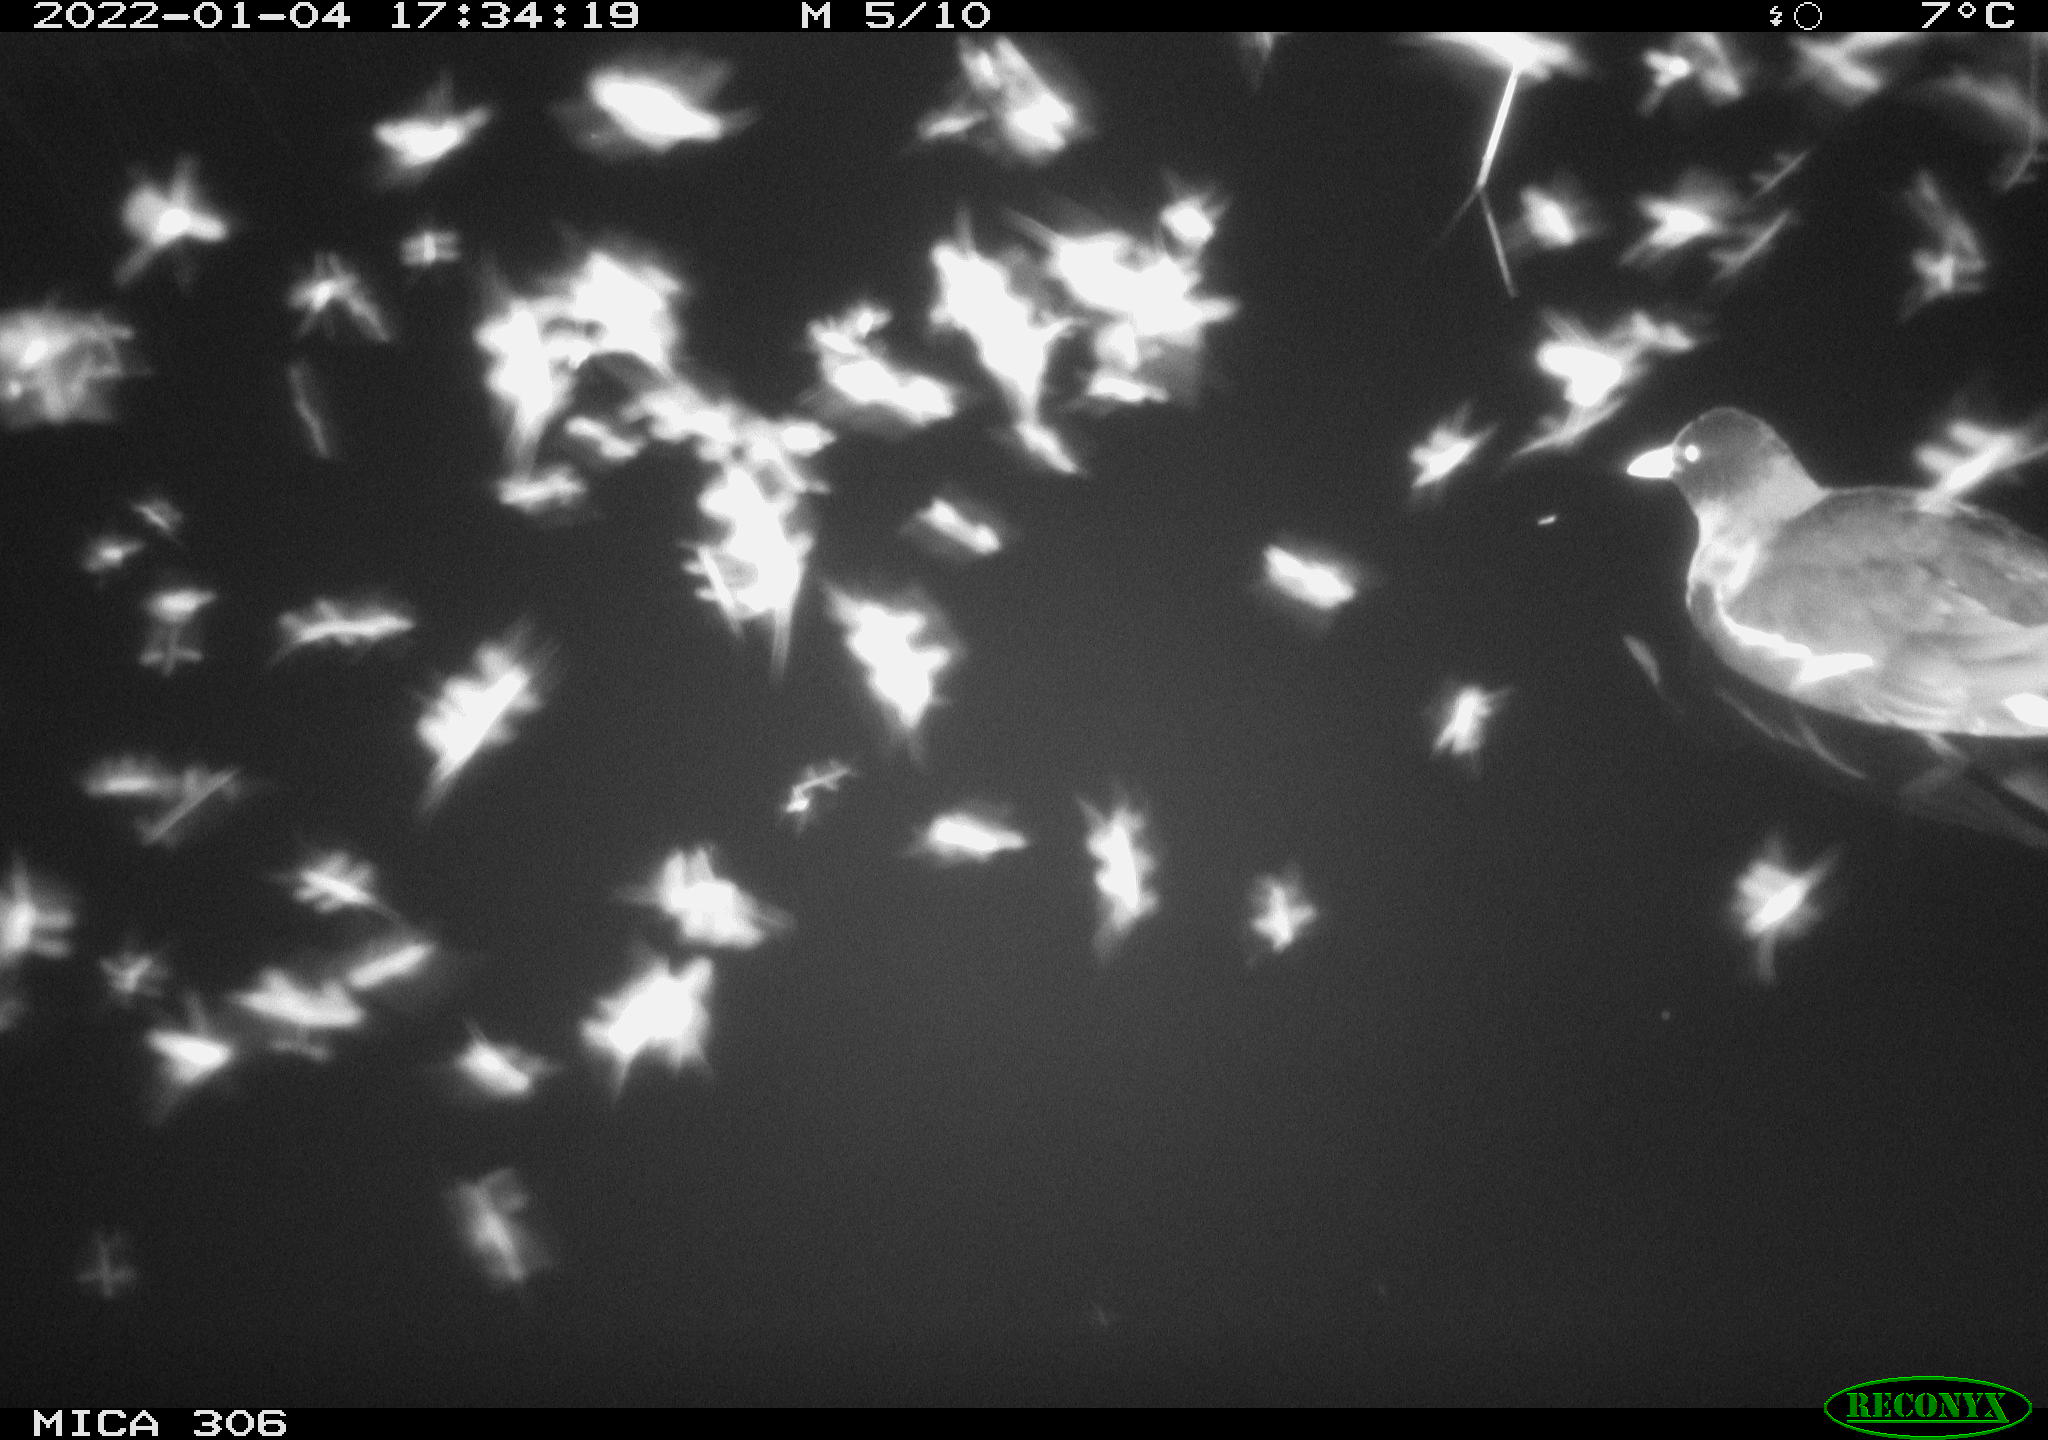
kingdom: Animalia
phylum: Chordata
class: Aves
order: Gruiformes
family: Rallidae
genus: Gallinula
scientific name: Gallinula chloropus
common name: Common moorhen
